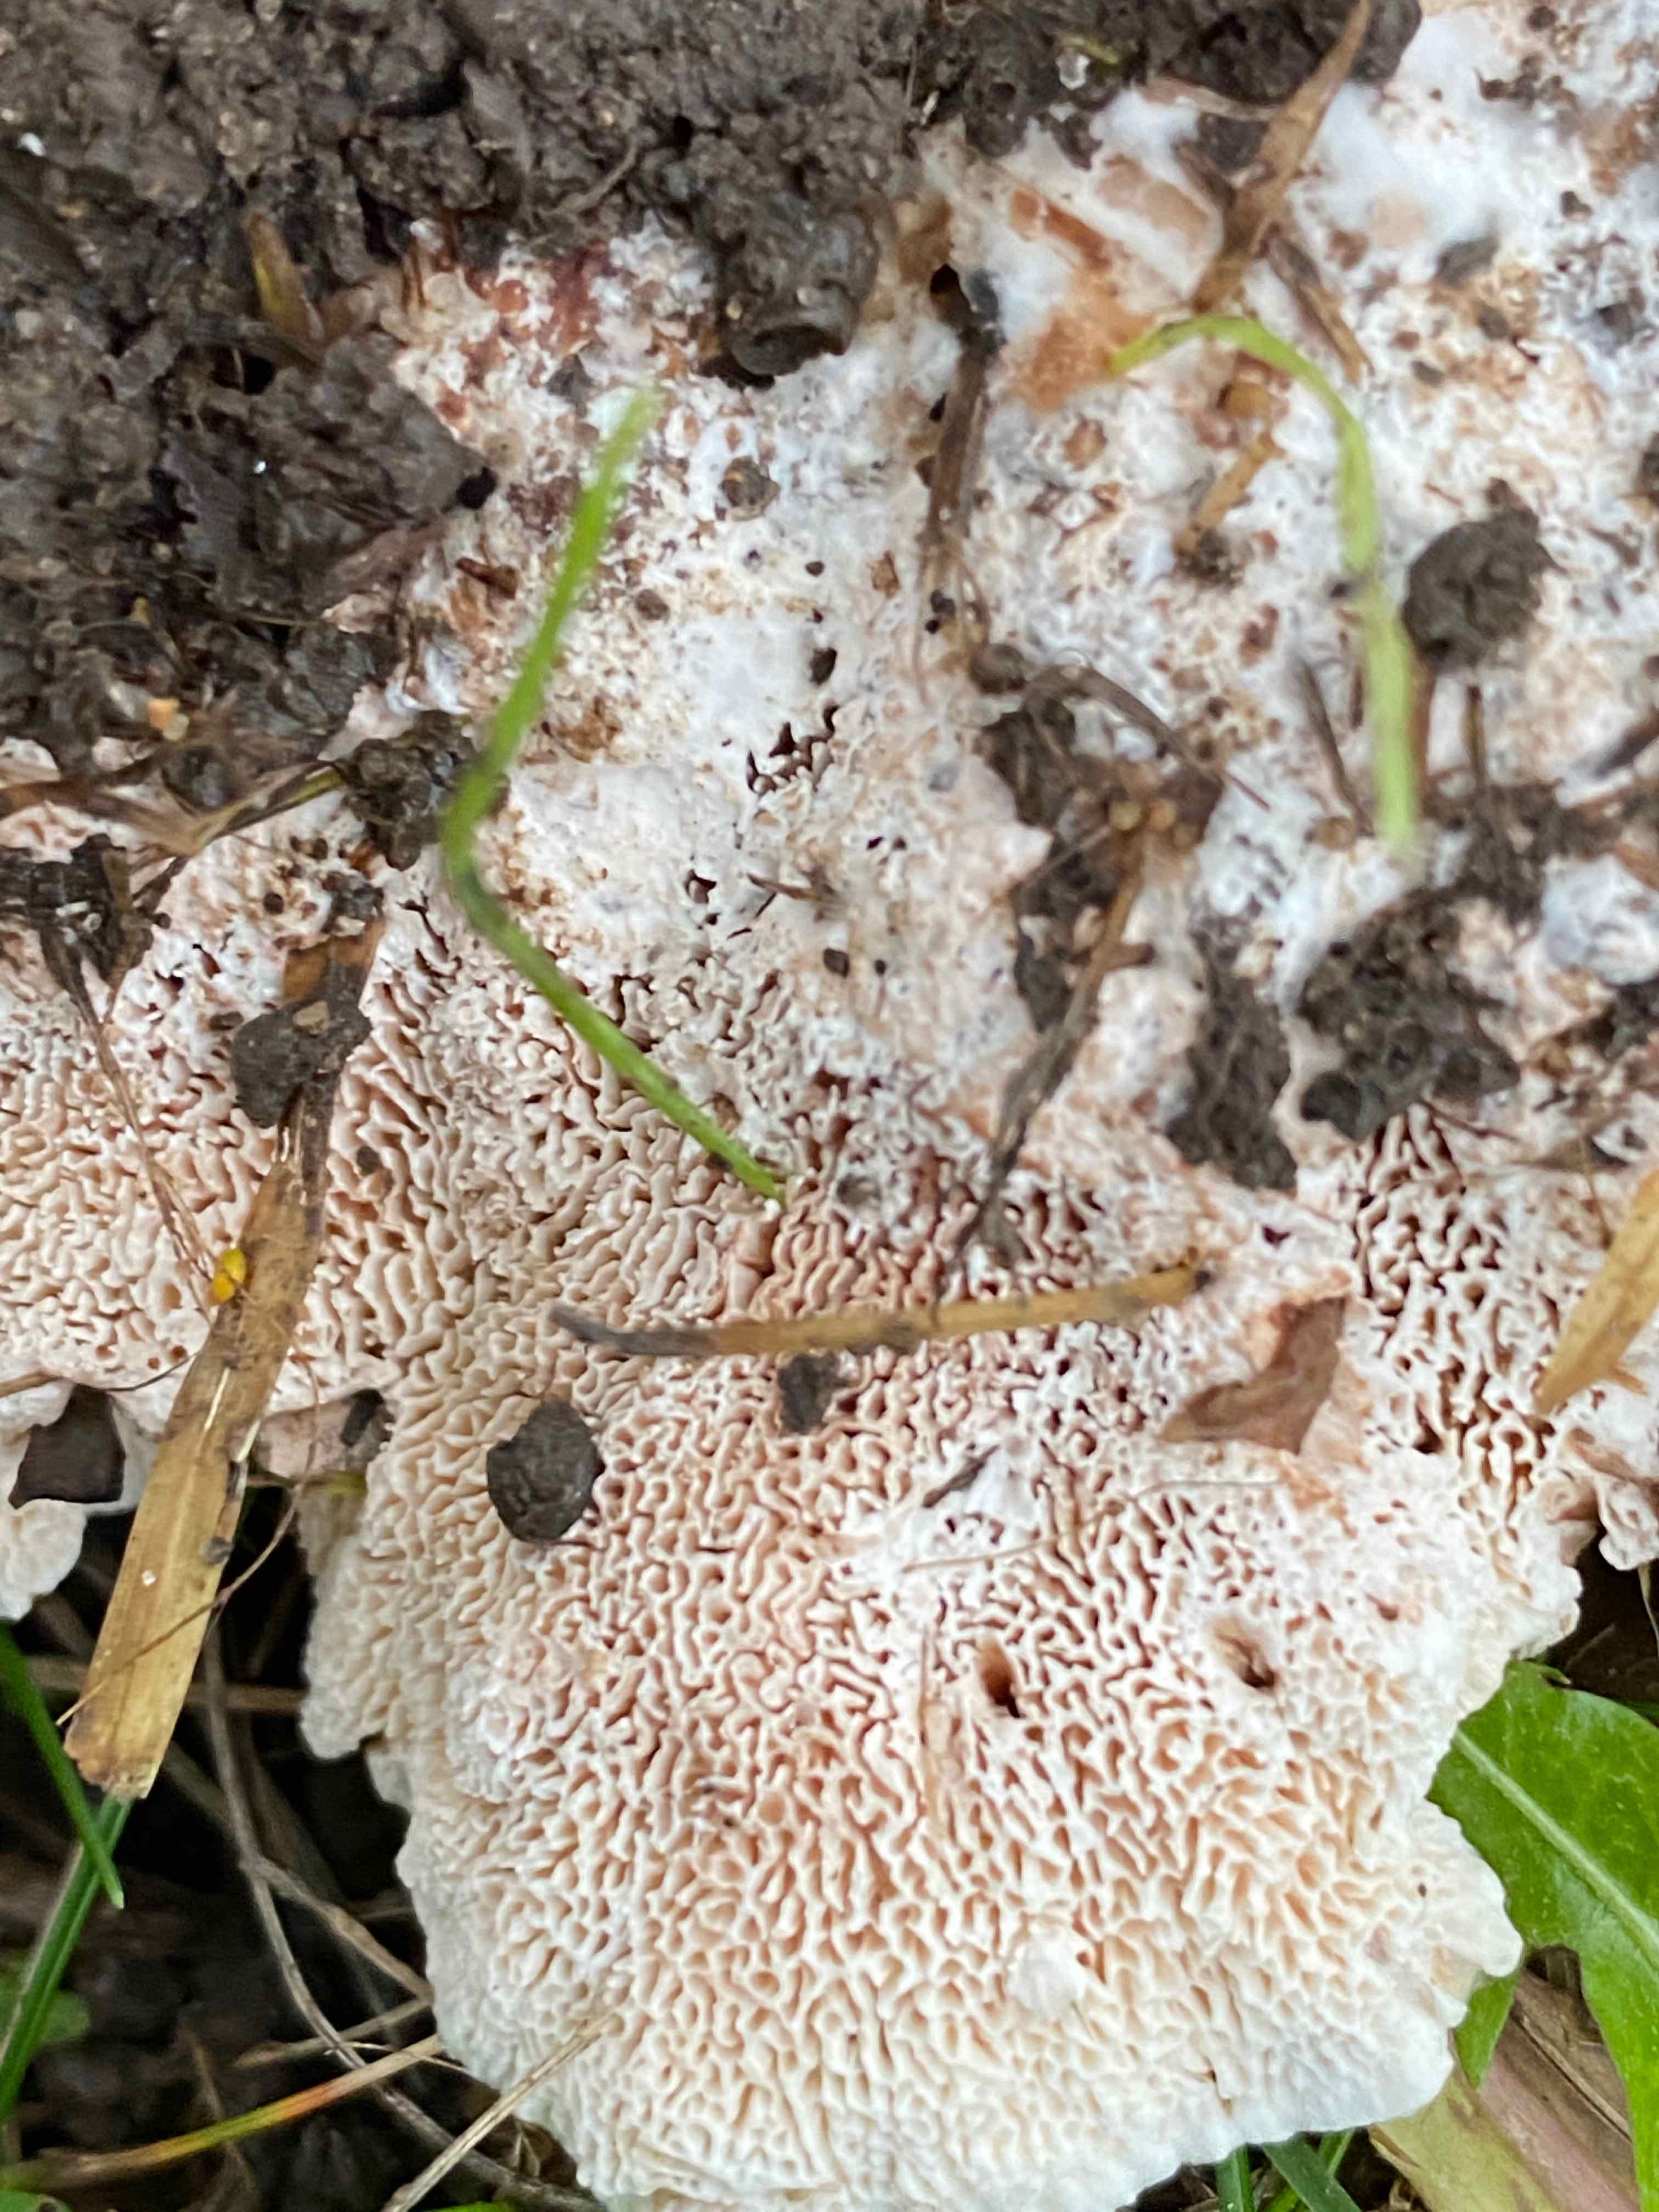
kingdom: Fungi
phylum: Basidiomycota
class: Agaricomycetes
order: Polyporales
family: Podoscyphaceae
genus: Abortiporus
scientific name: Abortiporus biennis
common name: rødmende pjalteporesvamp
